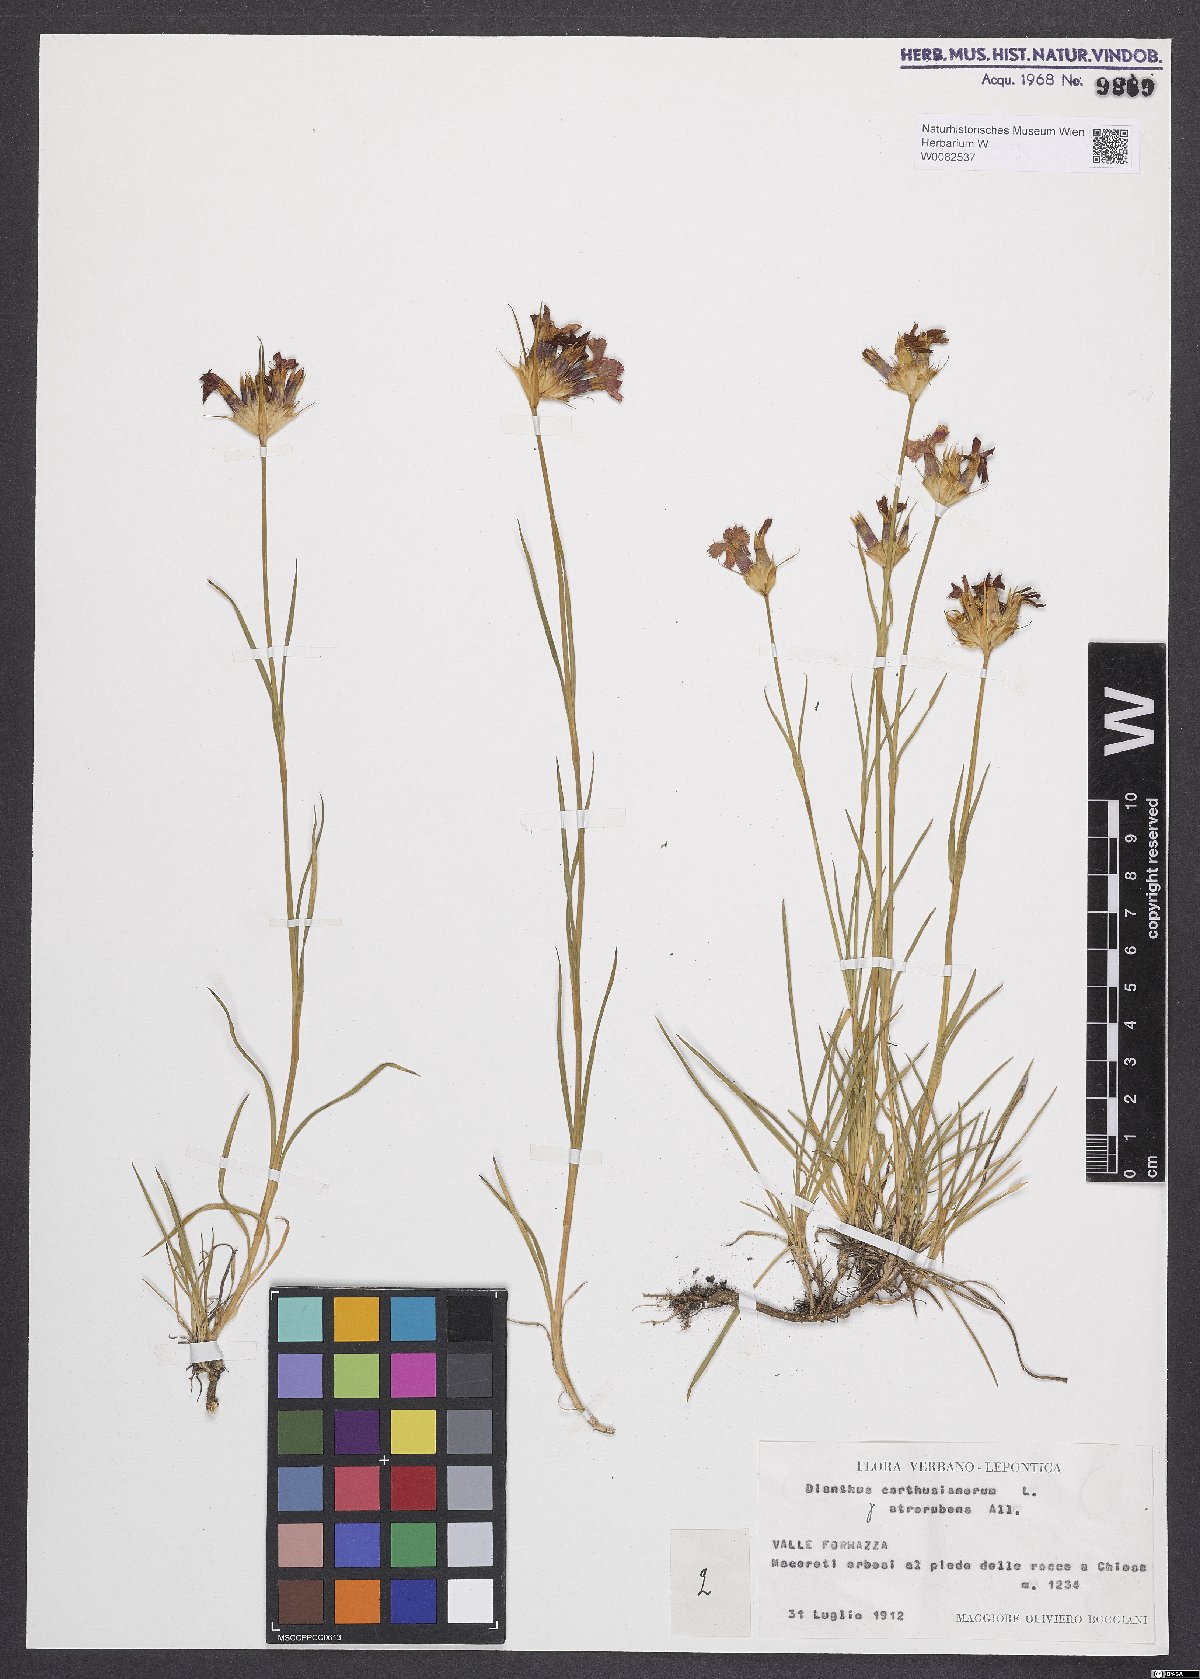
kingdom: Plantae
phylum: Tracheophyta
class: Magnoliopsida
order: Caryophyllales
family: Caryophyllaceae
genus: Dianthus
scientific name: Dianthus carthusianorum
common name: Carthusian pink
